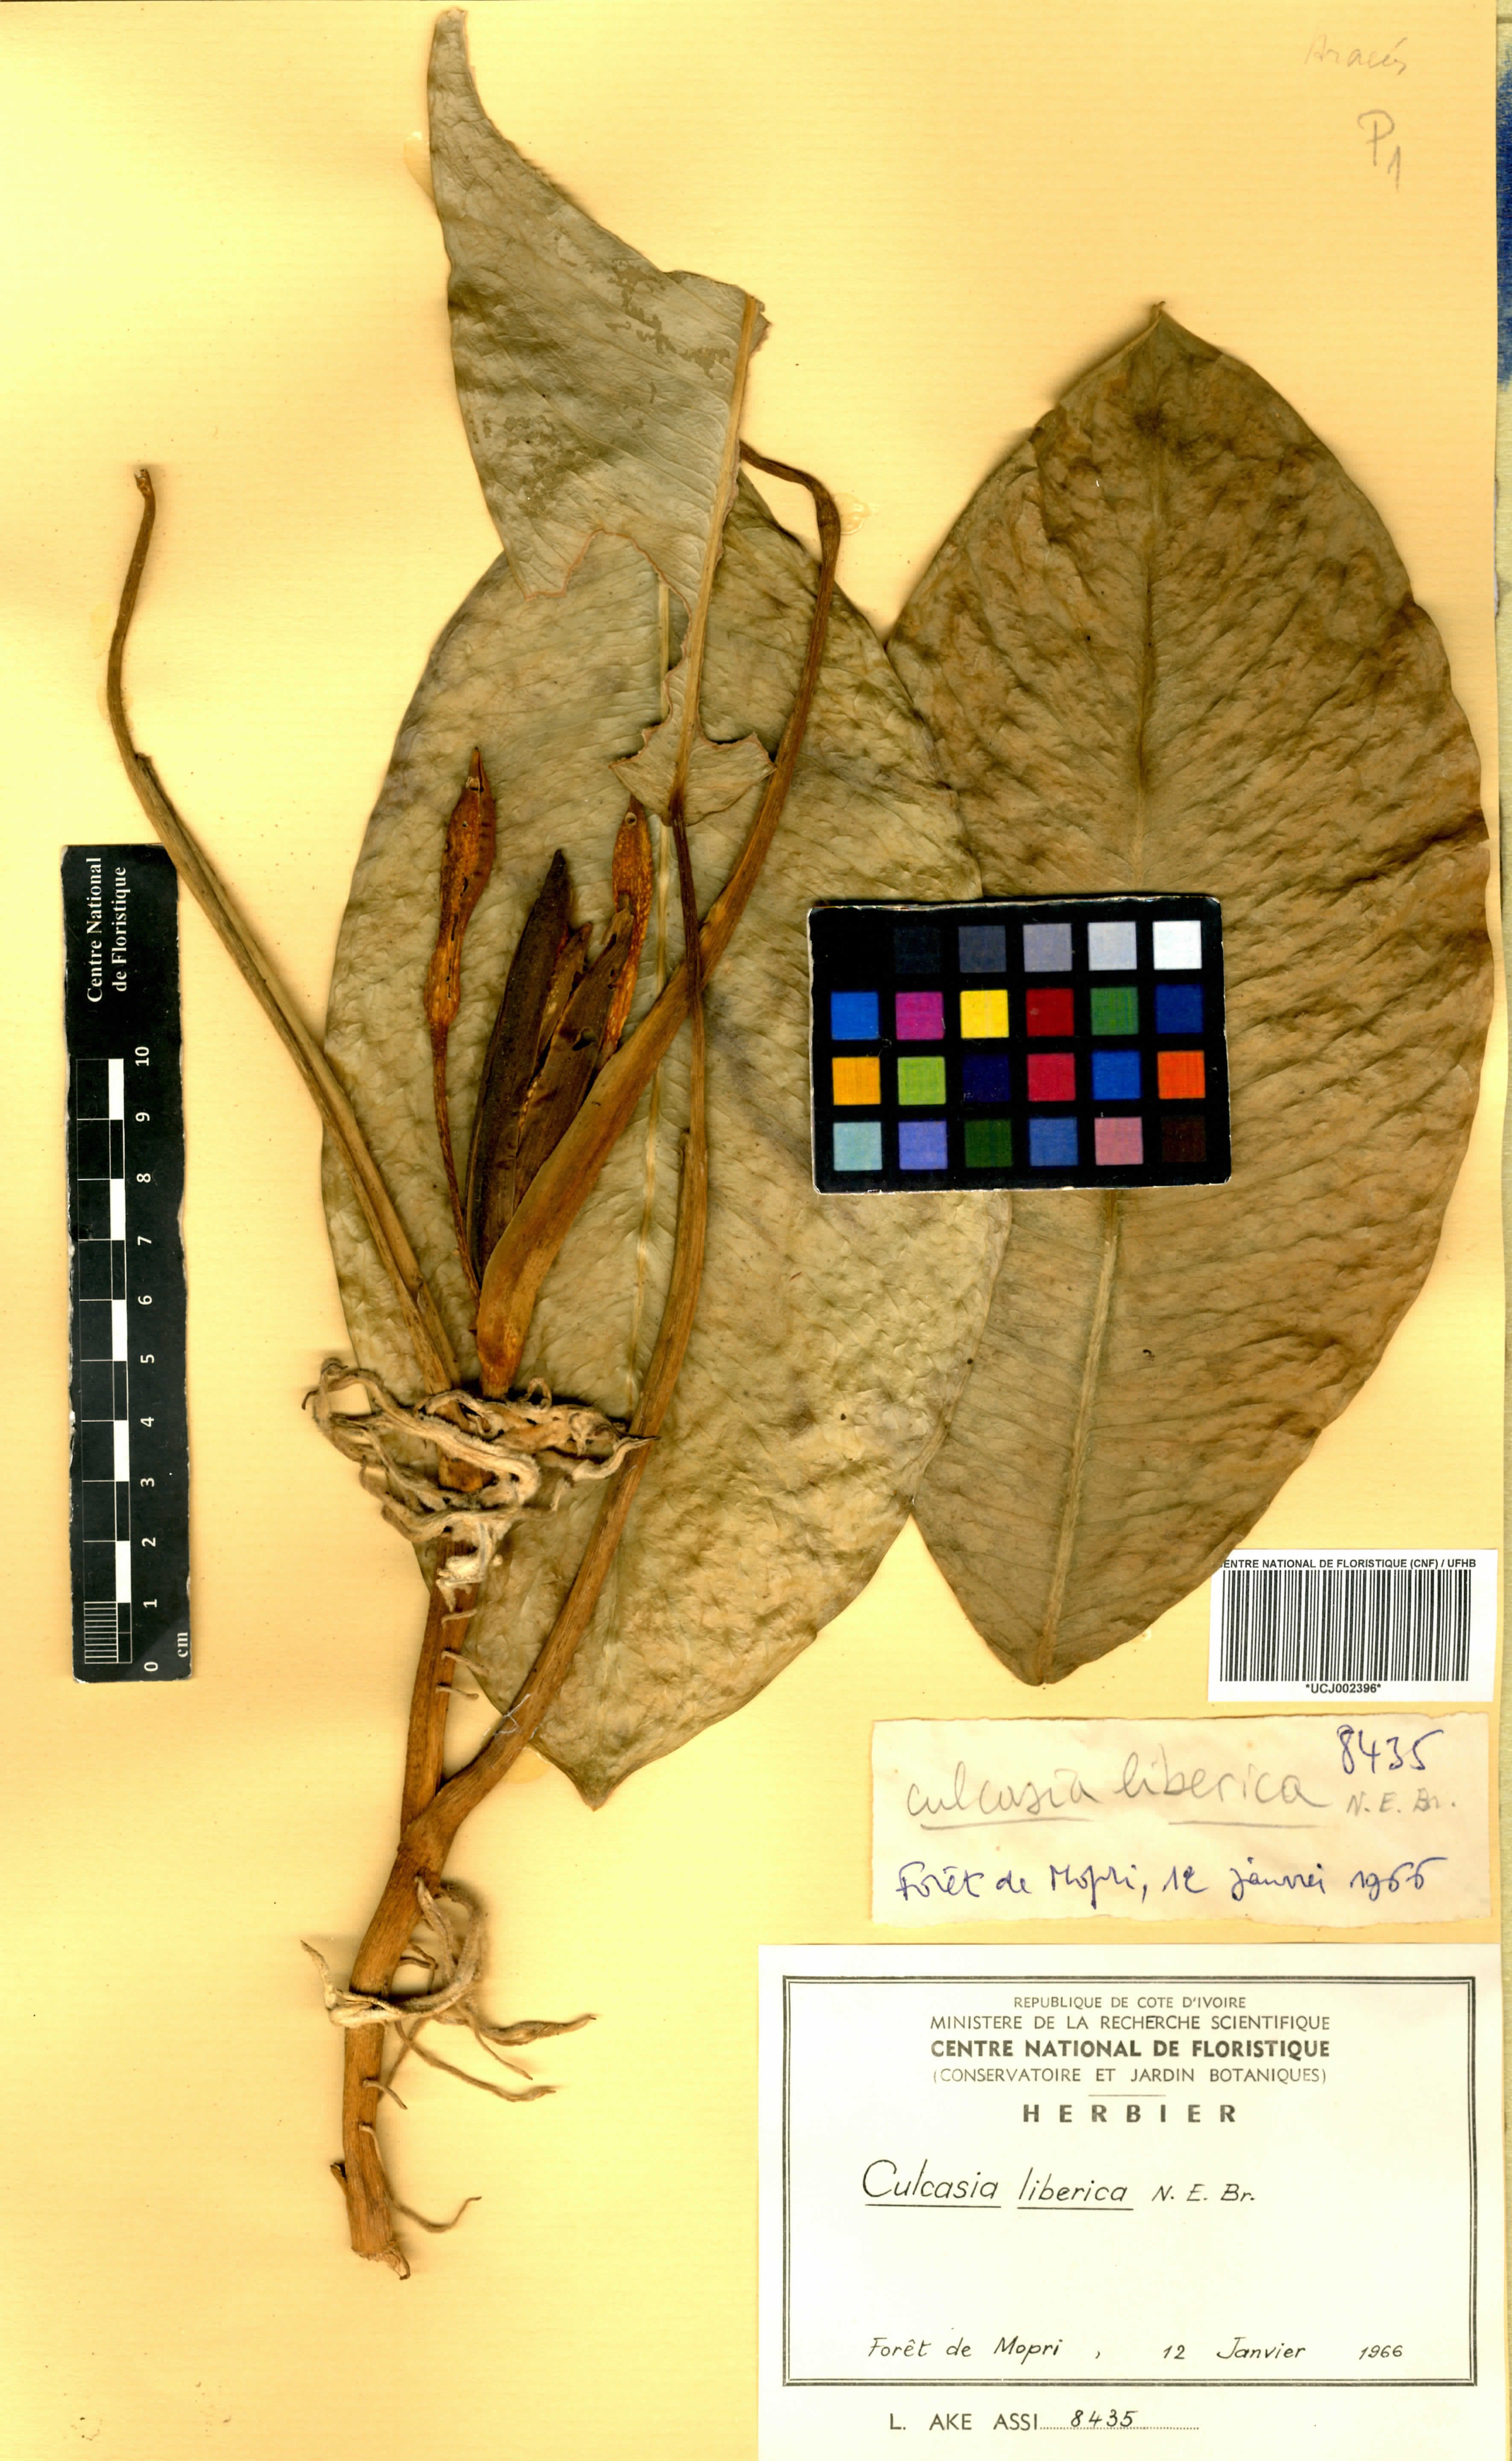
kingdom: Plantae
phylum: Tracheophyta
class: Liliopsida
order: Alismatales
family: Araceae
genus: Culcasia
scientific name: Culcasia liberica
